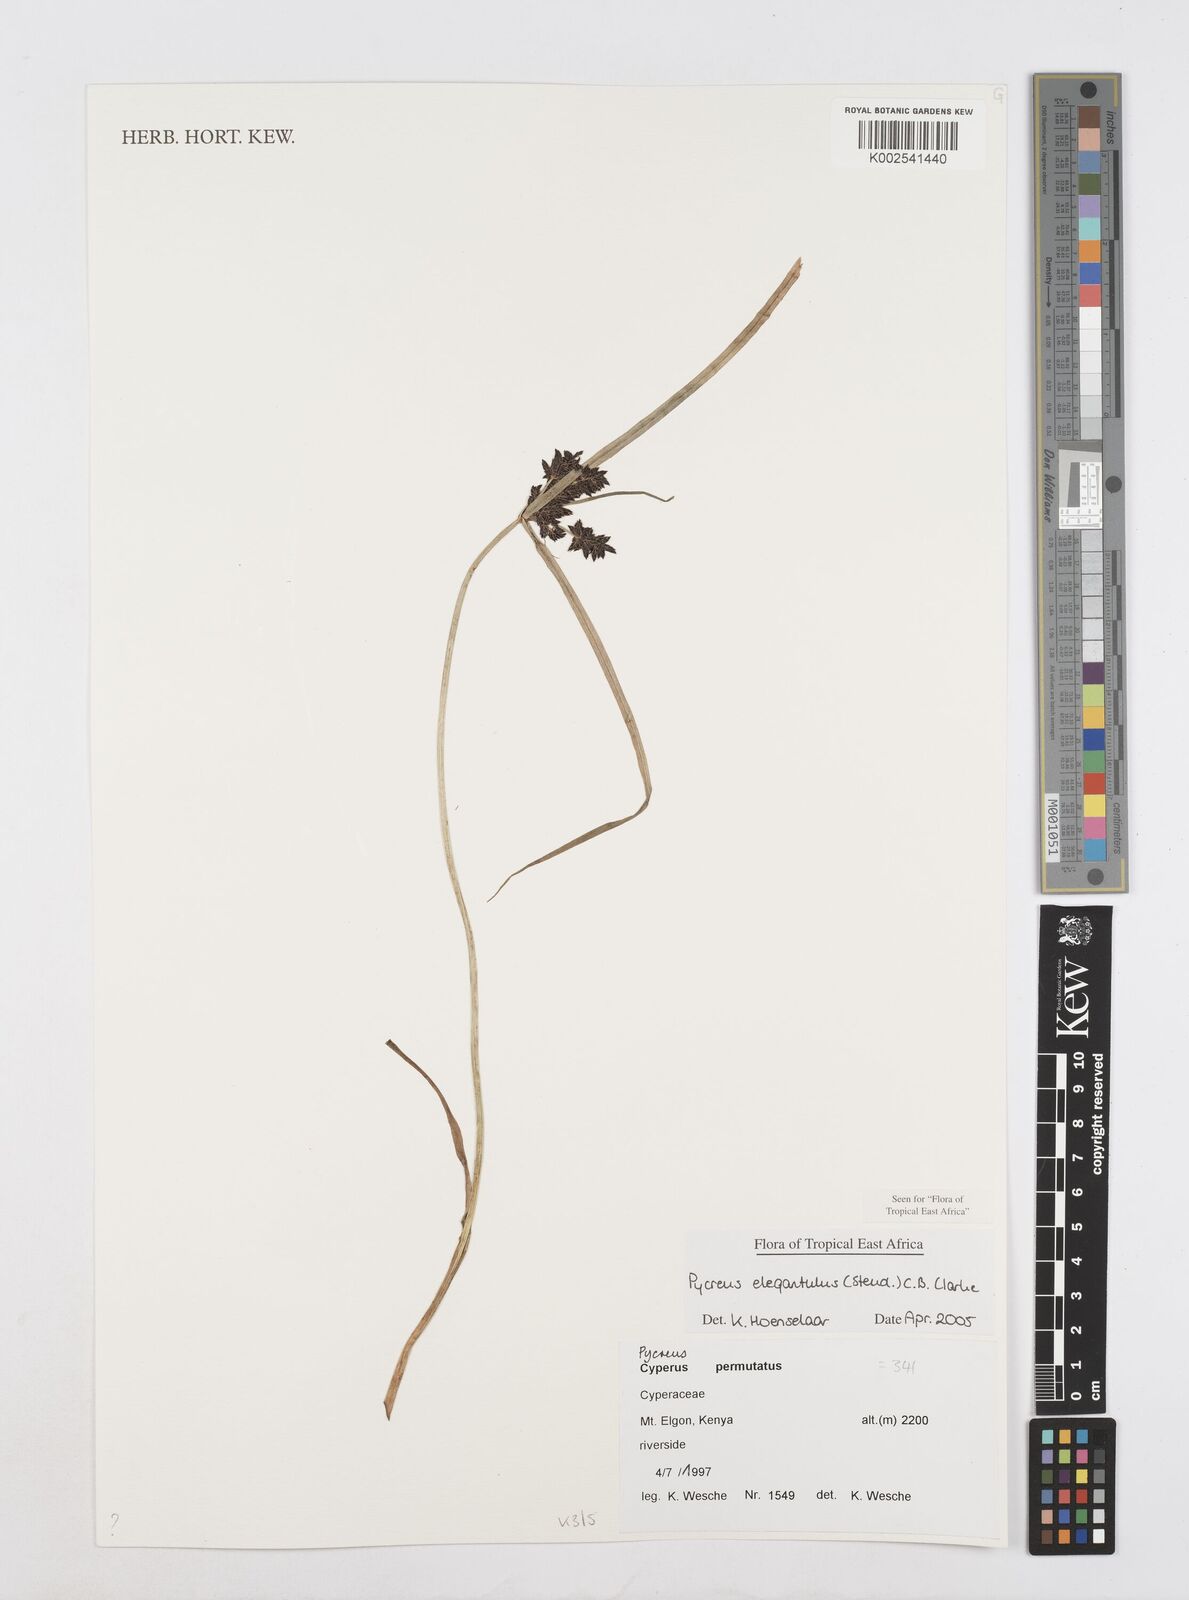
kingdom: Plantae
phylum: Tracheophyta
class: Liliopsida
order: Poales
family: Cyperaceae
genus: Cyperus
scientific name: Cyperus elegantulus
